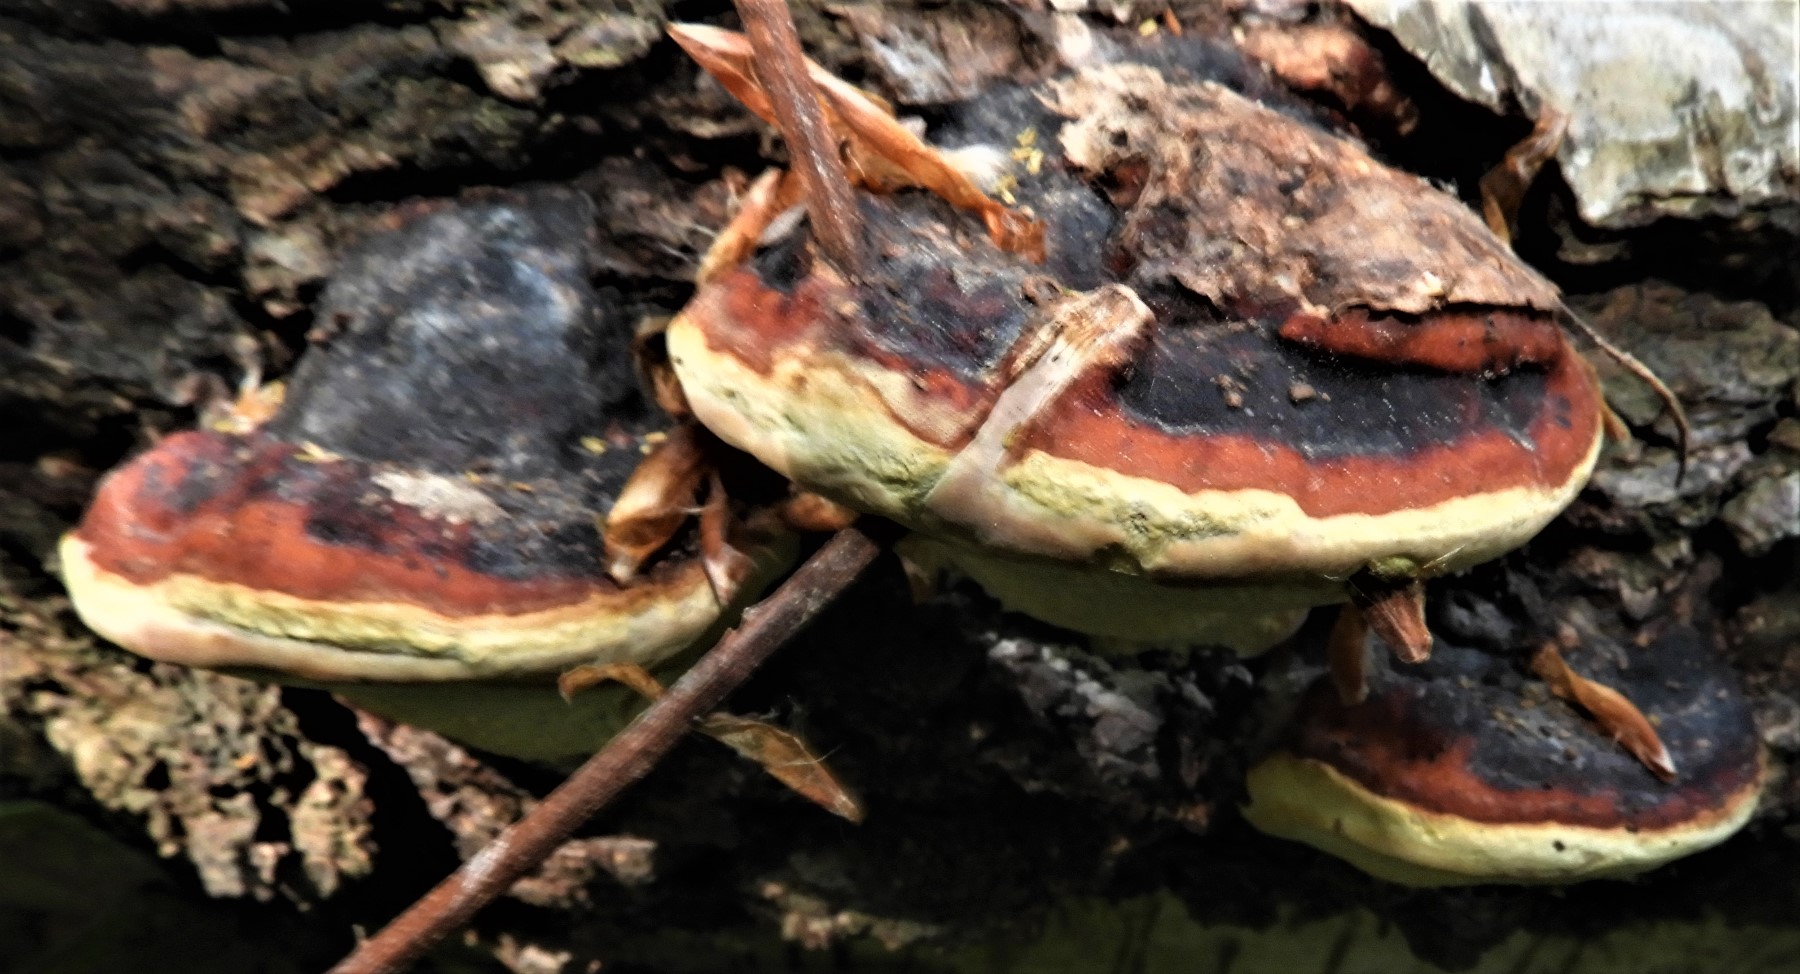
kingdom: Fungi
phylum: Basidiomycota
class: Agaricomycetes
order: Polyporales
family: Fomitopsidaceae
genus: Fomitopsis
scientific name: Fomitopsis pinicola
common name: randbæltet hovporesvamp
